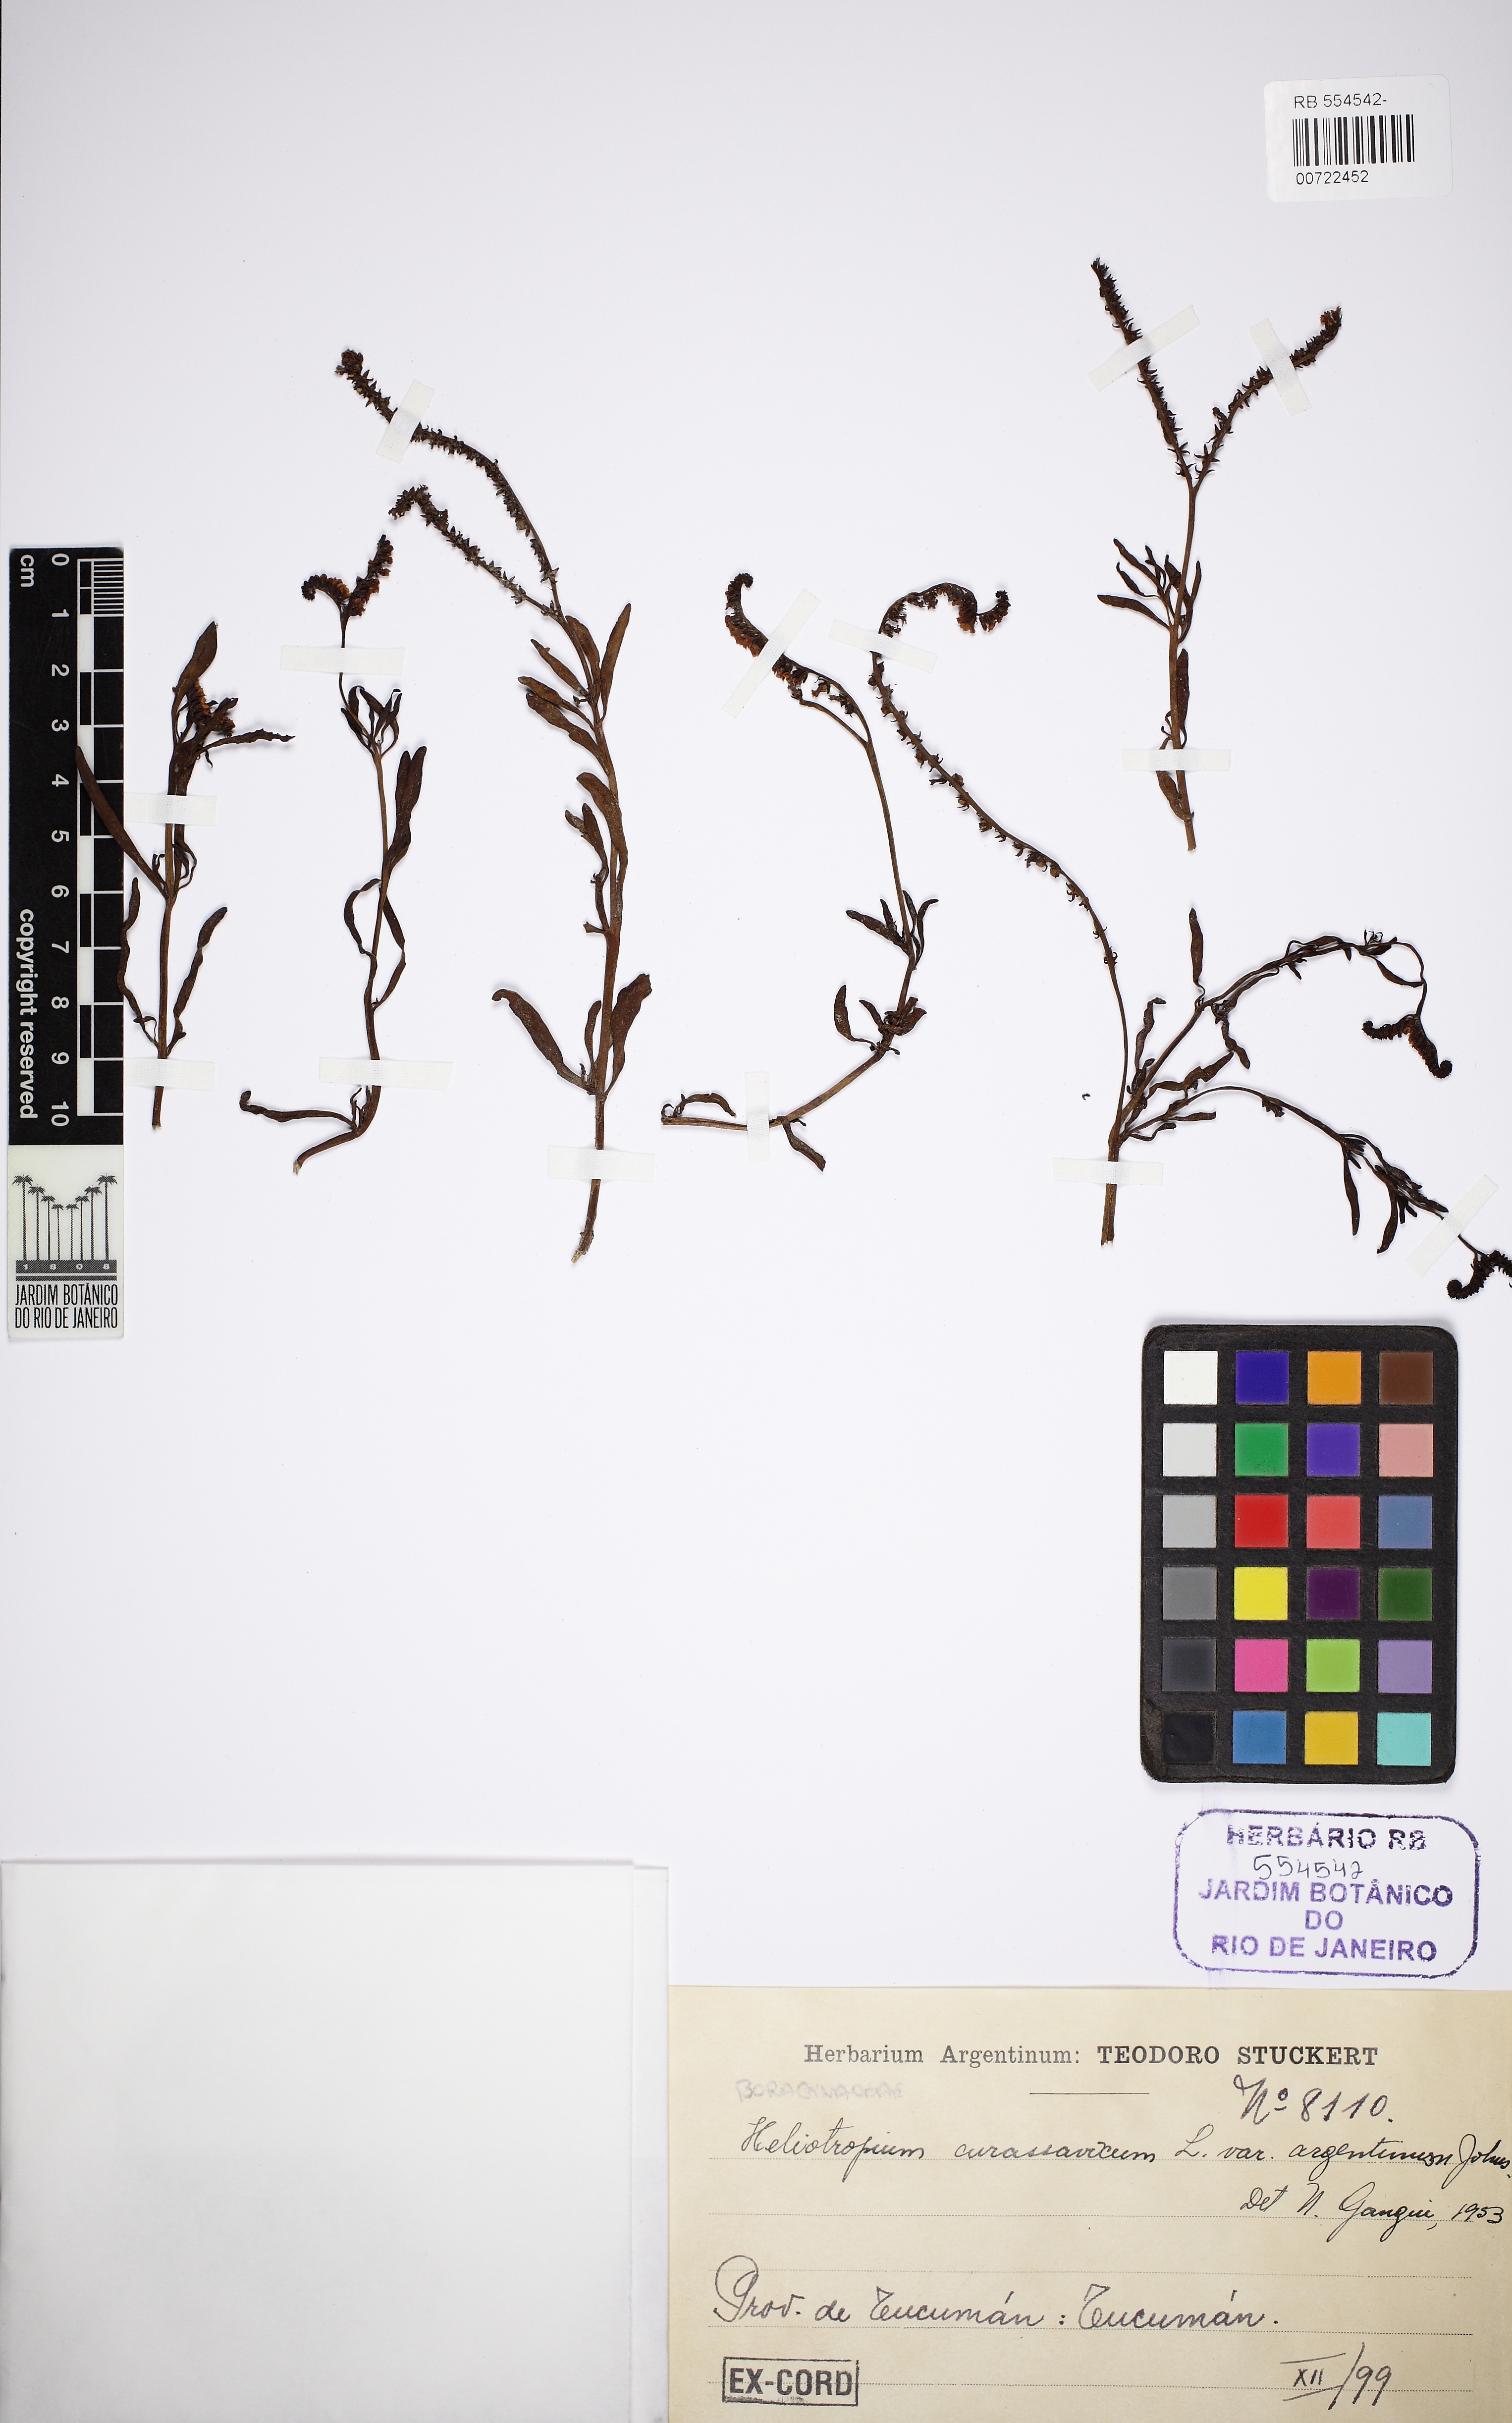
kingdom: Plantae
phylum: Tracheophyta
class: Magnoliopsida
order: Boraginales
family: Heliotropiaceae
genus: Heliotropium
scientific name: Heliotropium curassavicum
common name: Seaside heliotrope
